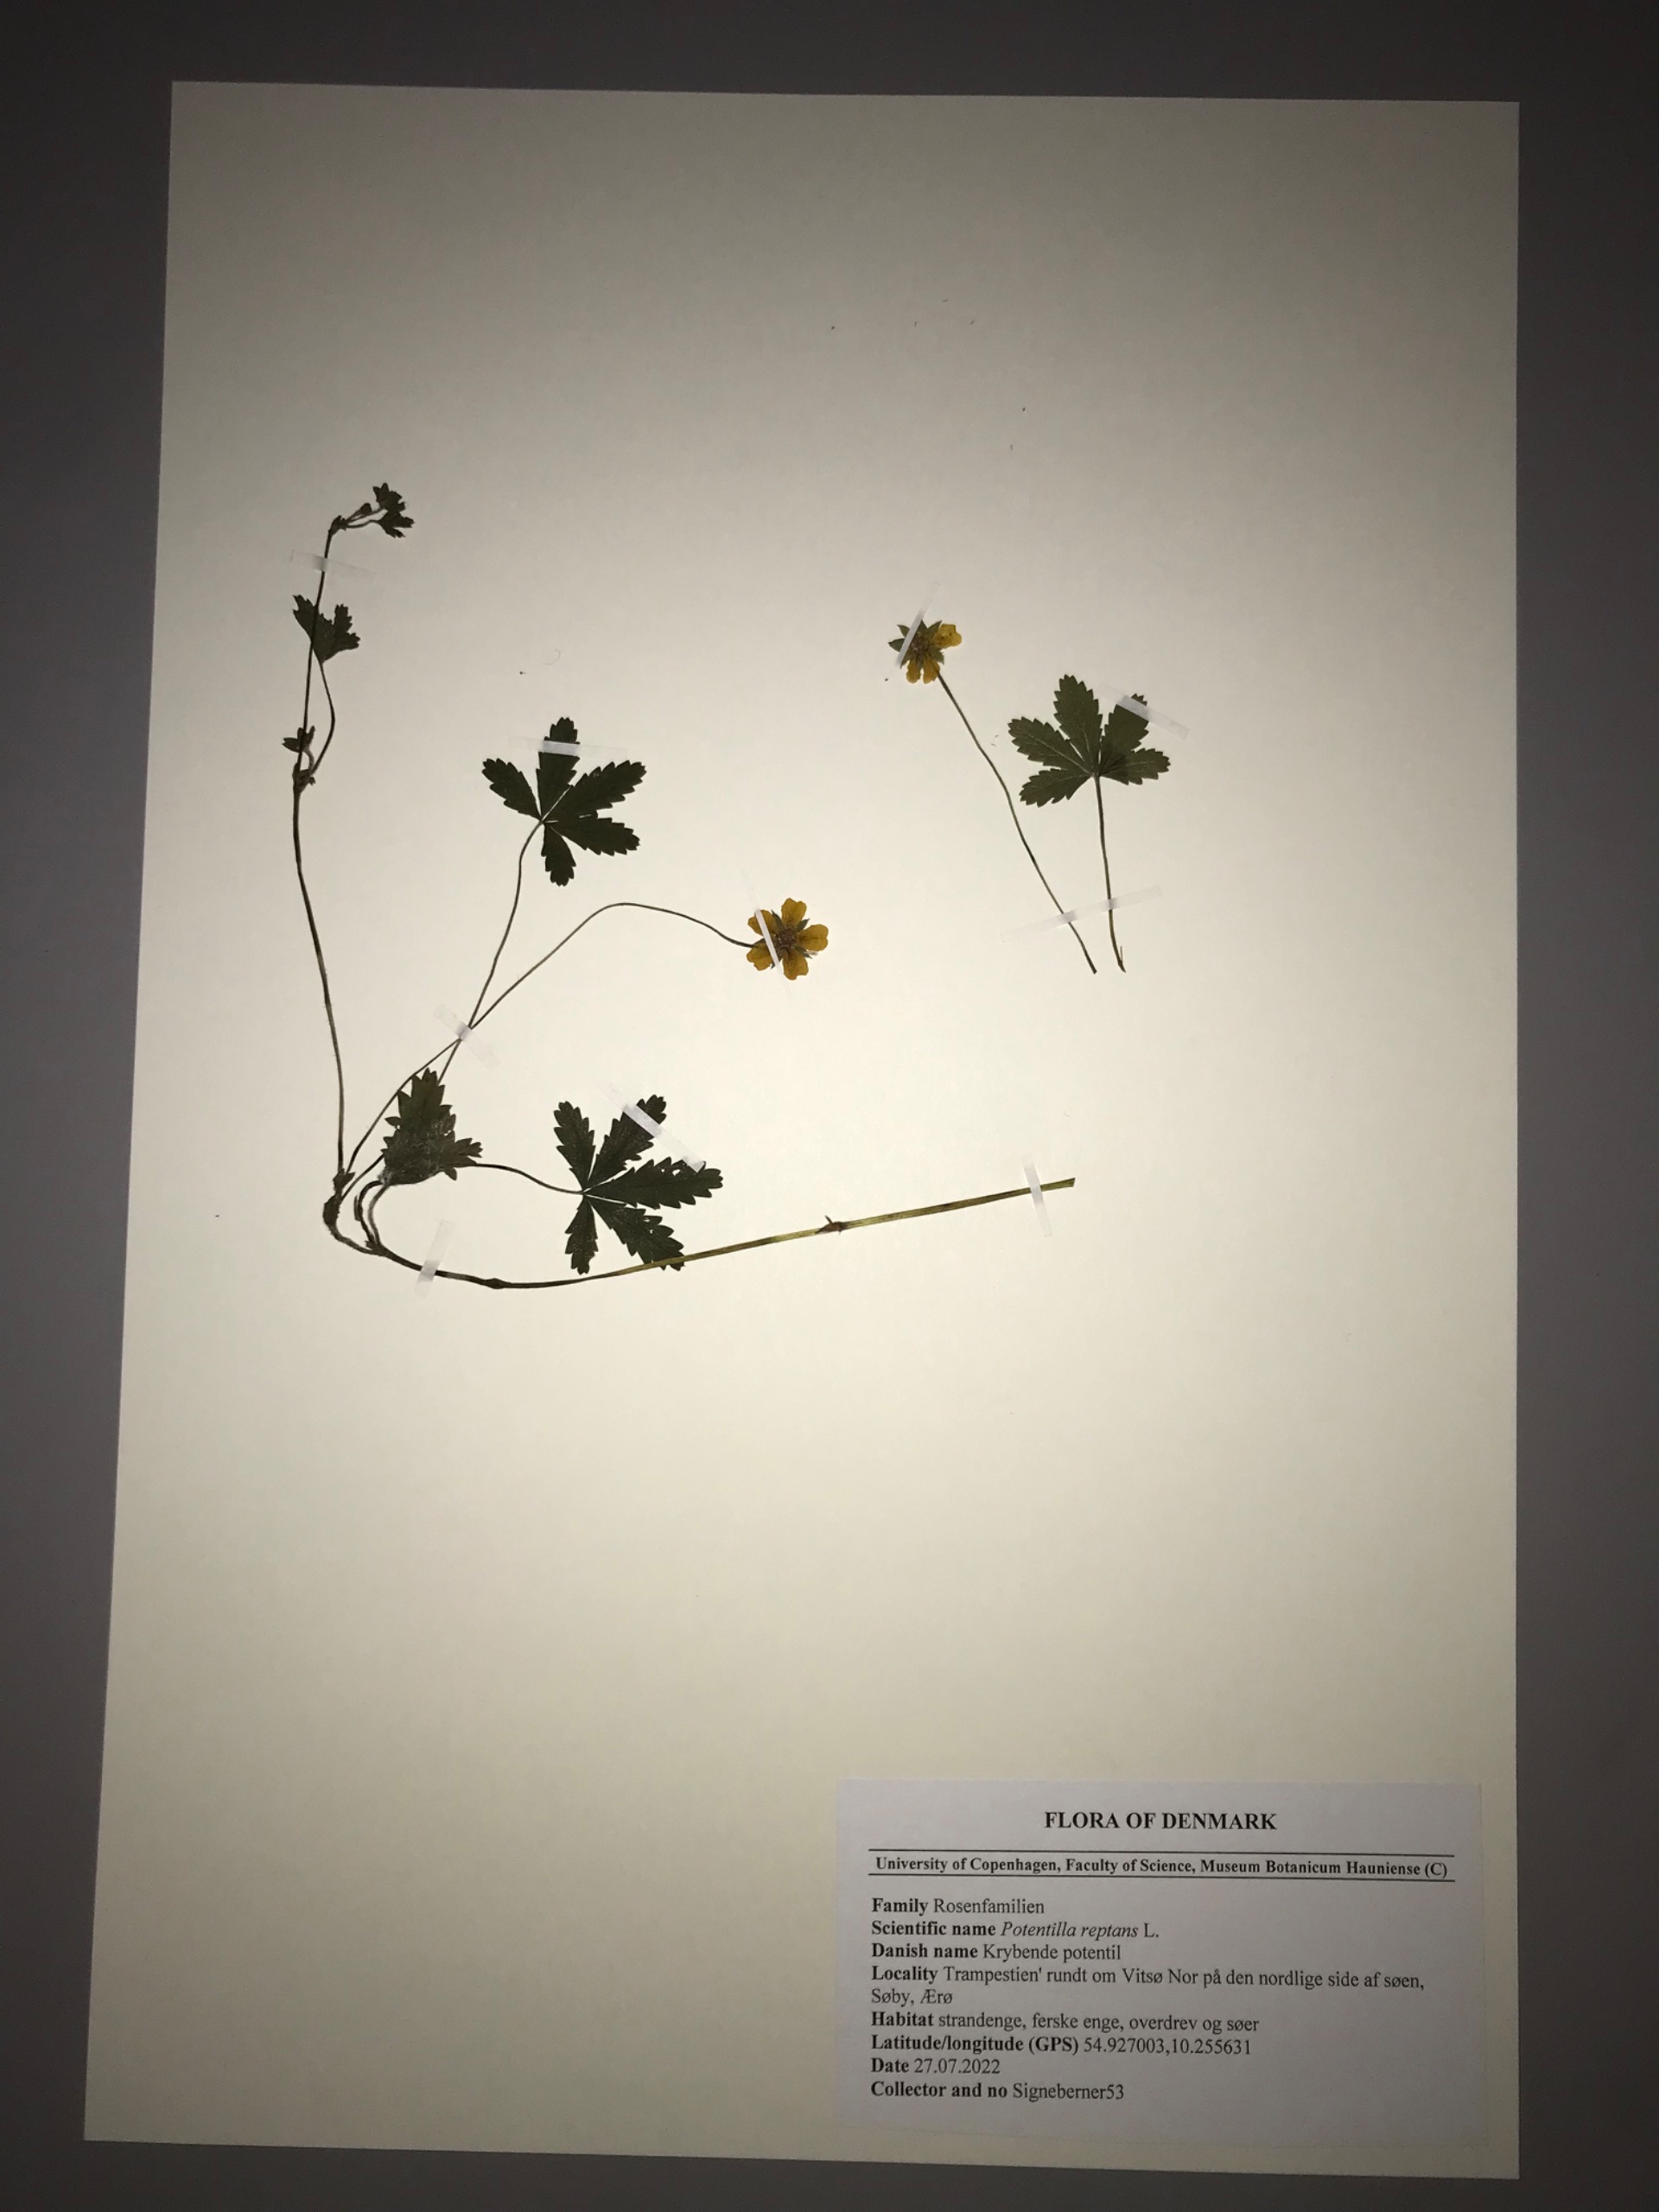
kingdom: Plantae
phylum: Tracheophyta
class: Magnoliopsida
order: Rosales
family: Rosaceae
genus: Potentilla
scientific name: Potentilla reptans
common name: Krybende potentil
